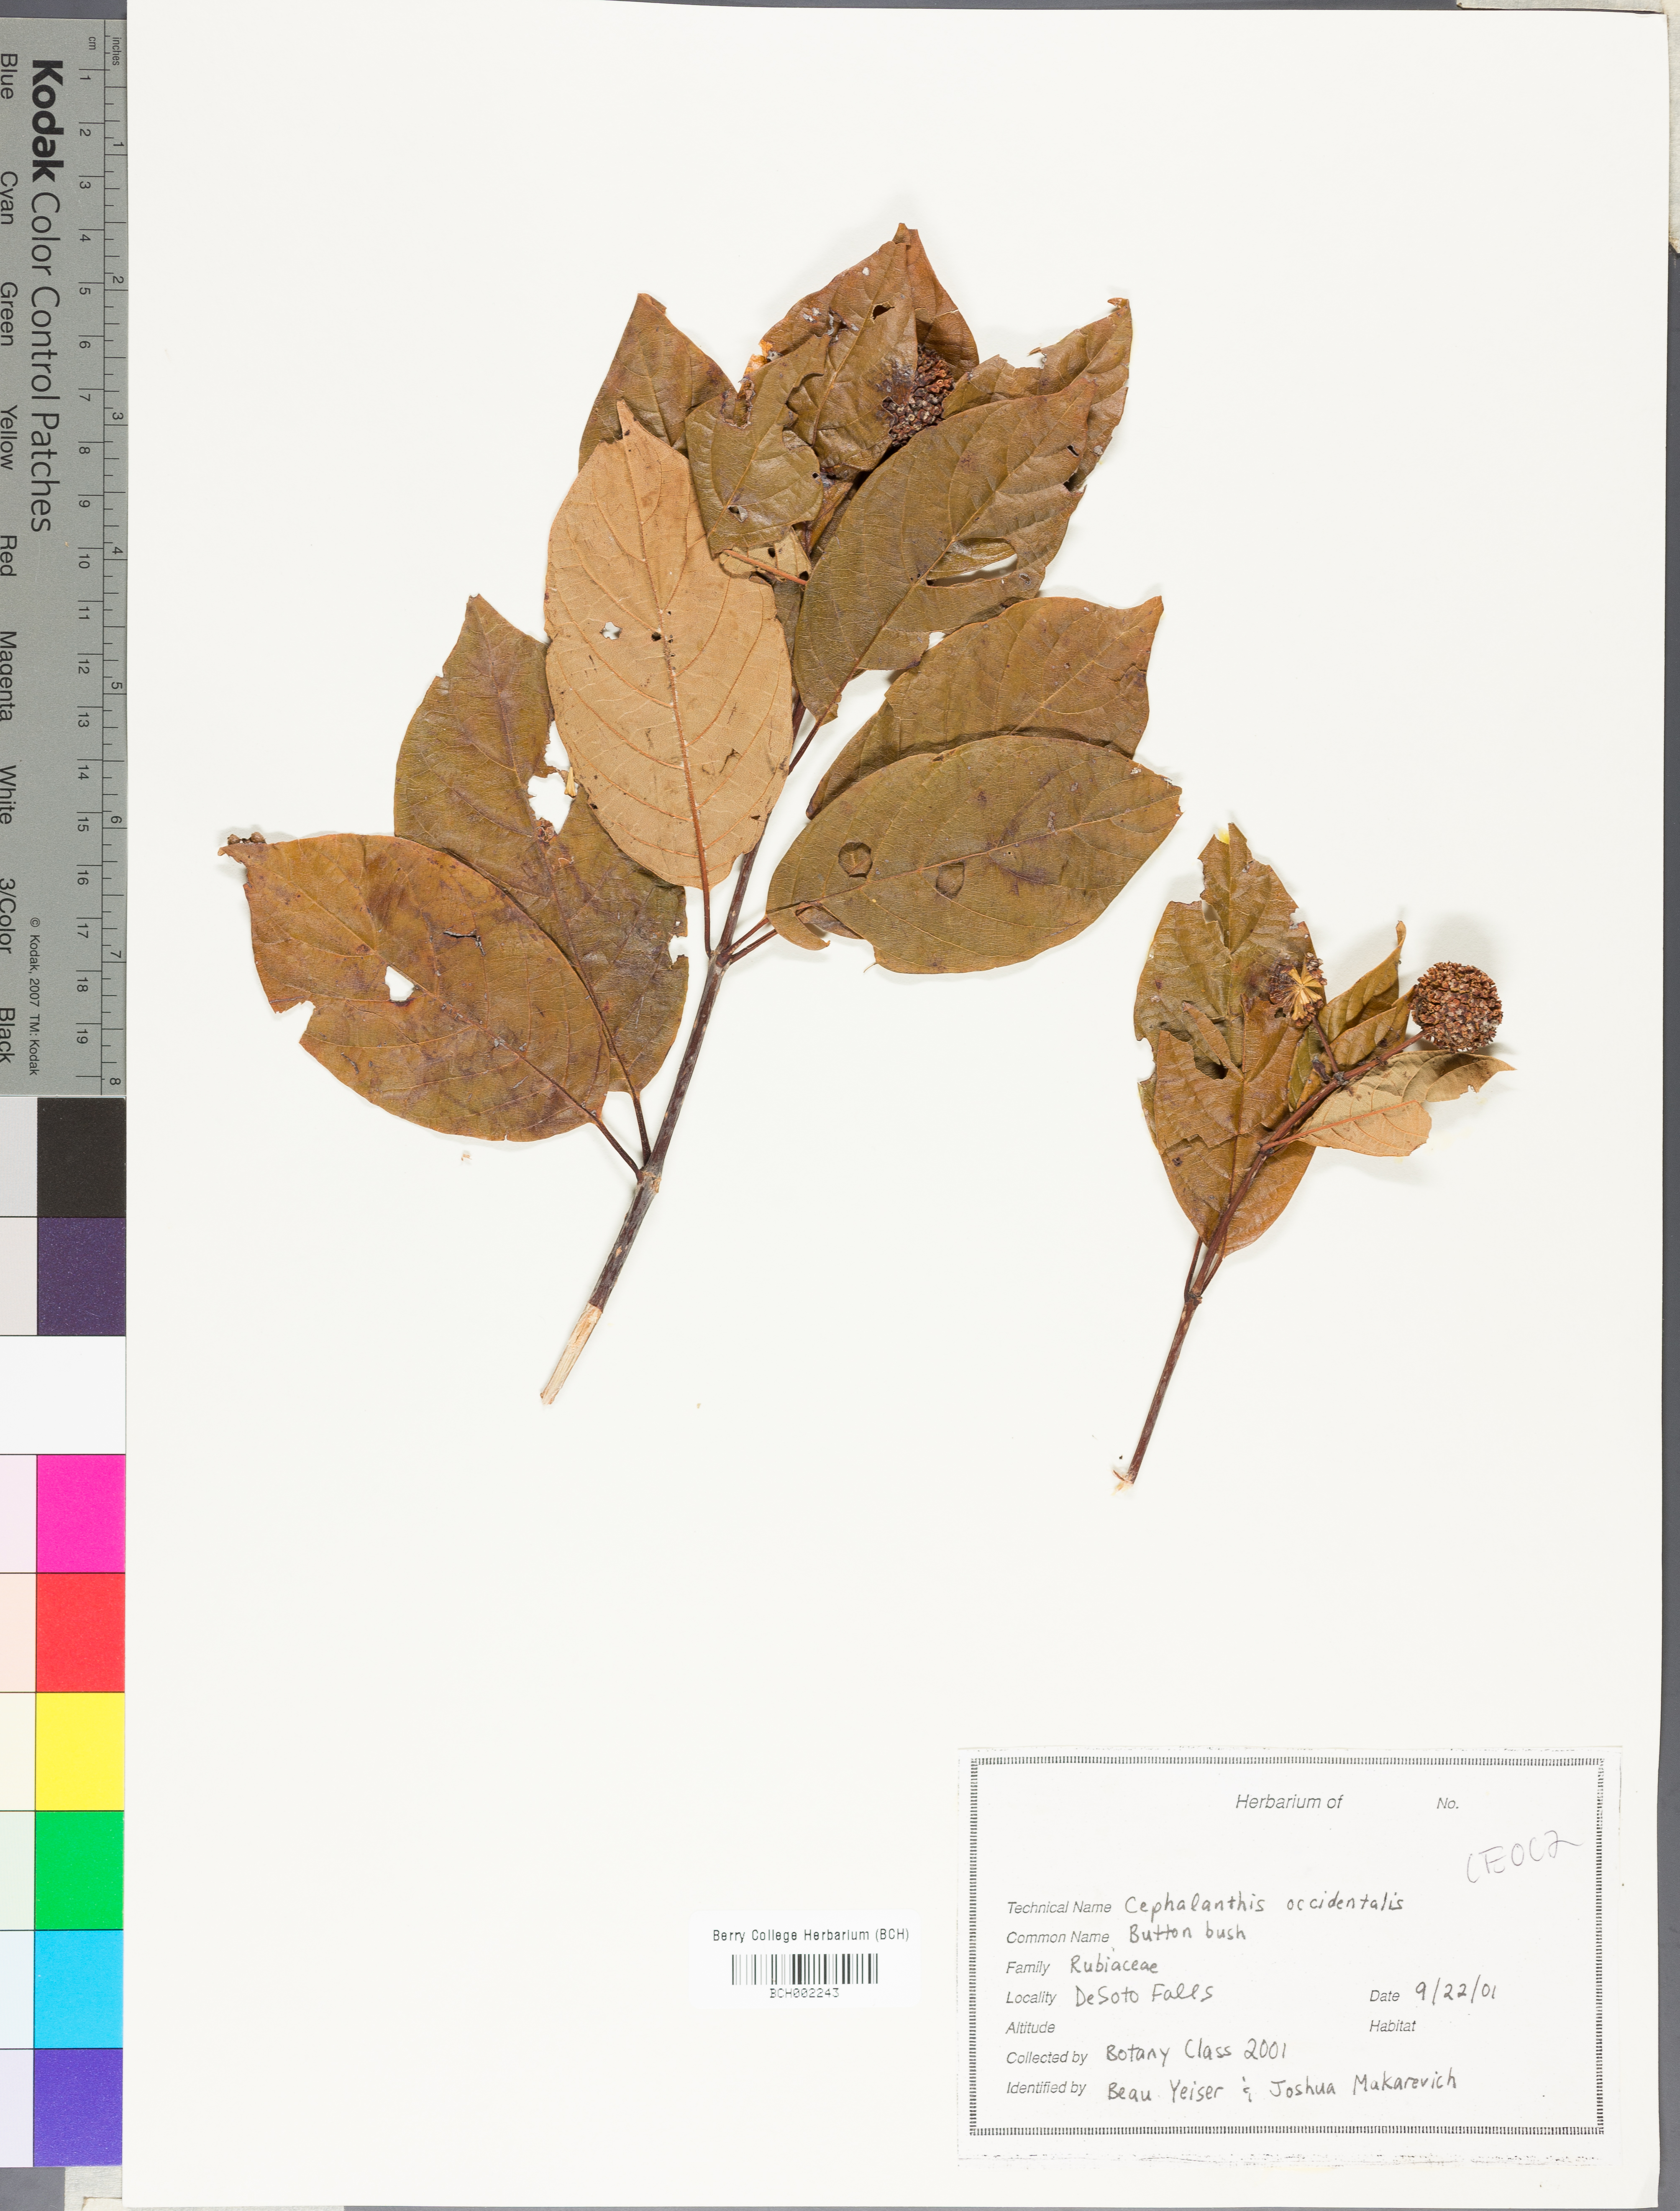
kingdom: Plantae
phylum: Tracheophyta
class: Magnoliopsida
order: Gentianales
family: Rubiaceae
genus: Cephalanthus
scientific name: Cephalanthus occidentalis
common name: Button-willow
